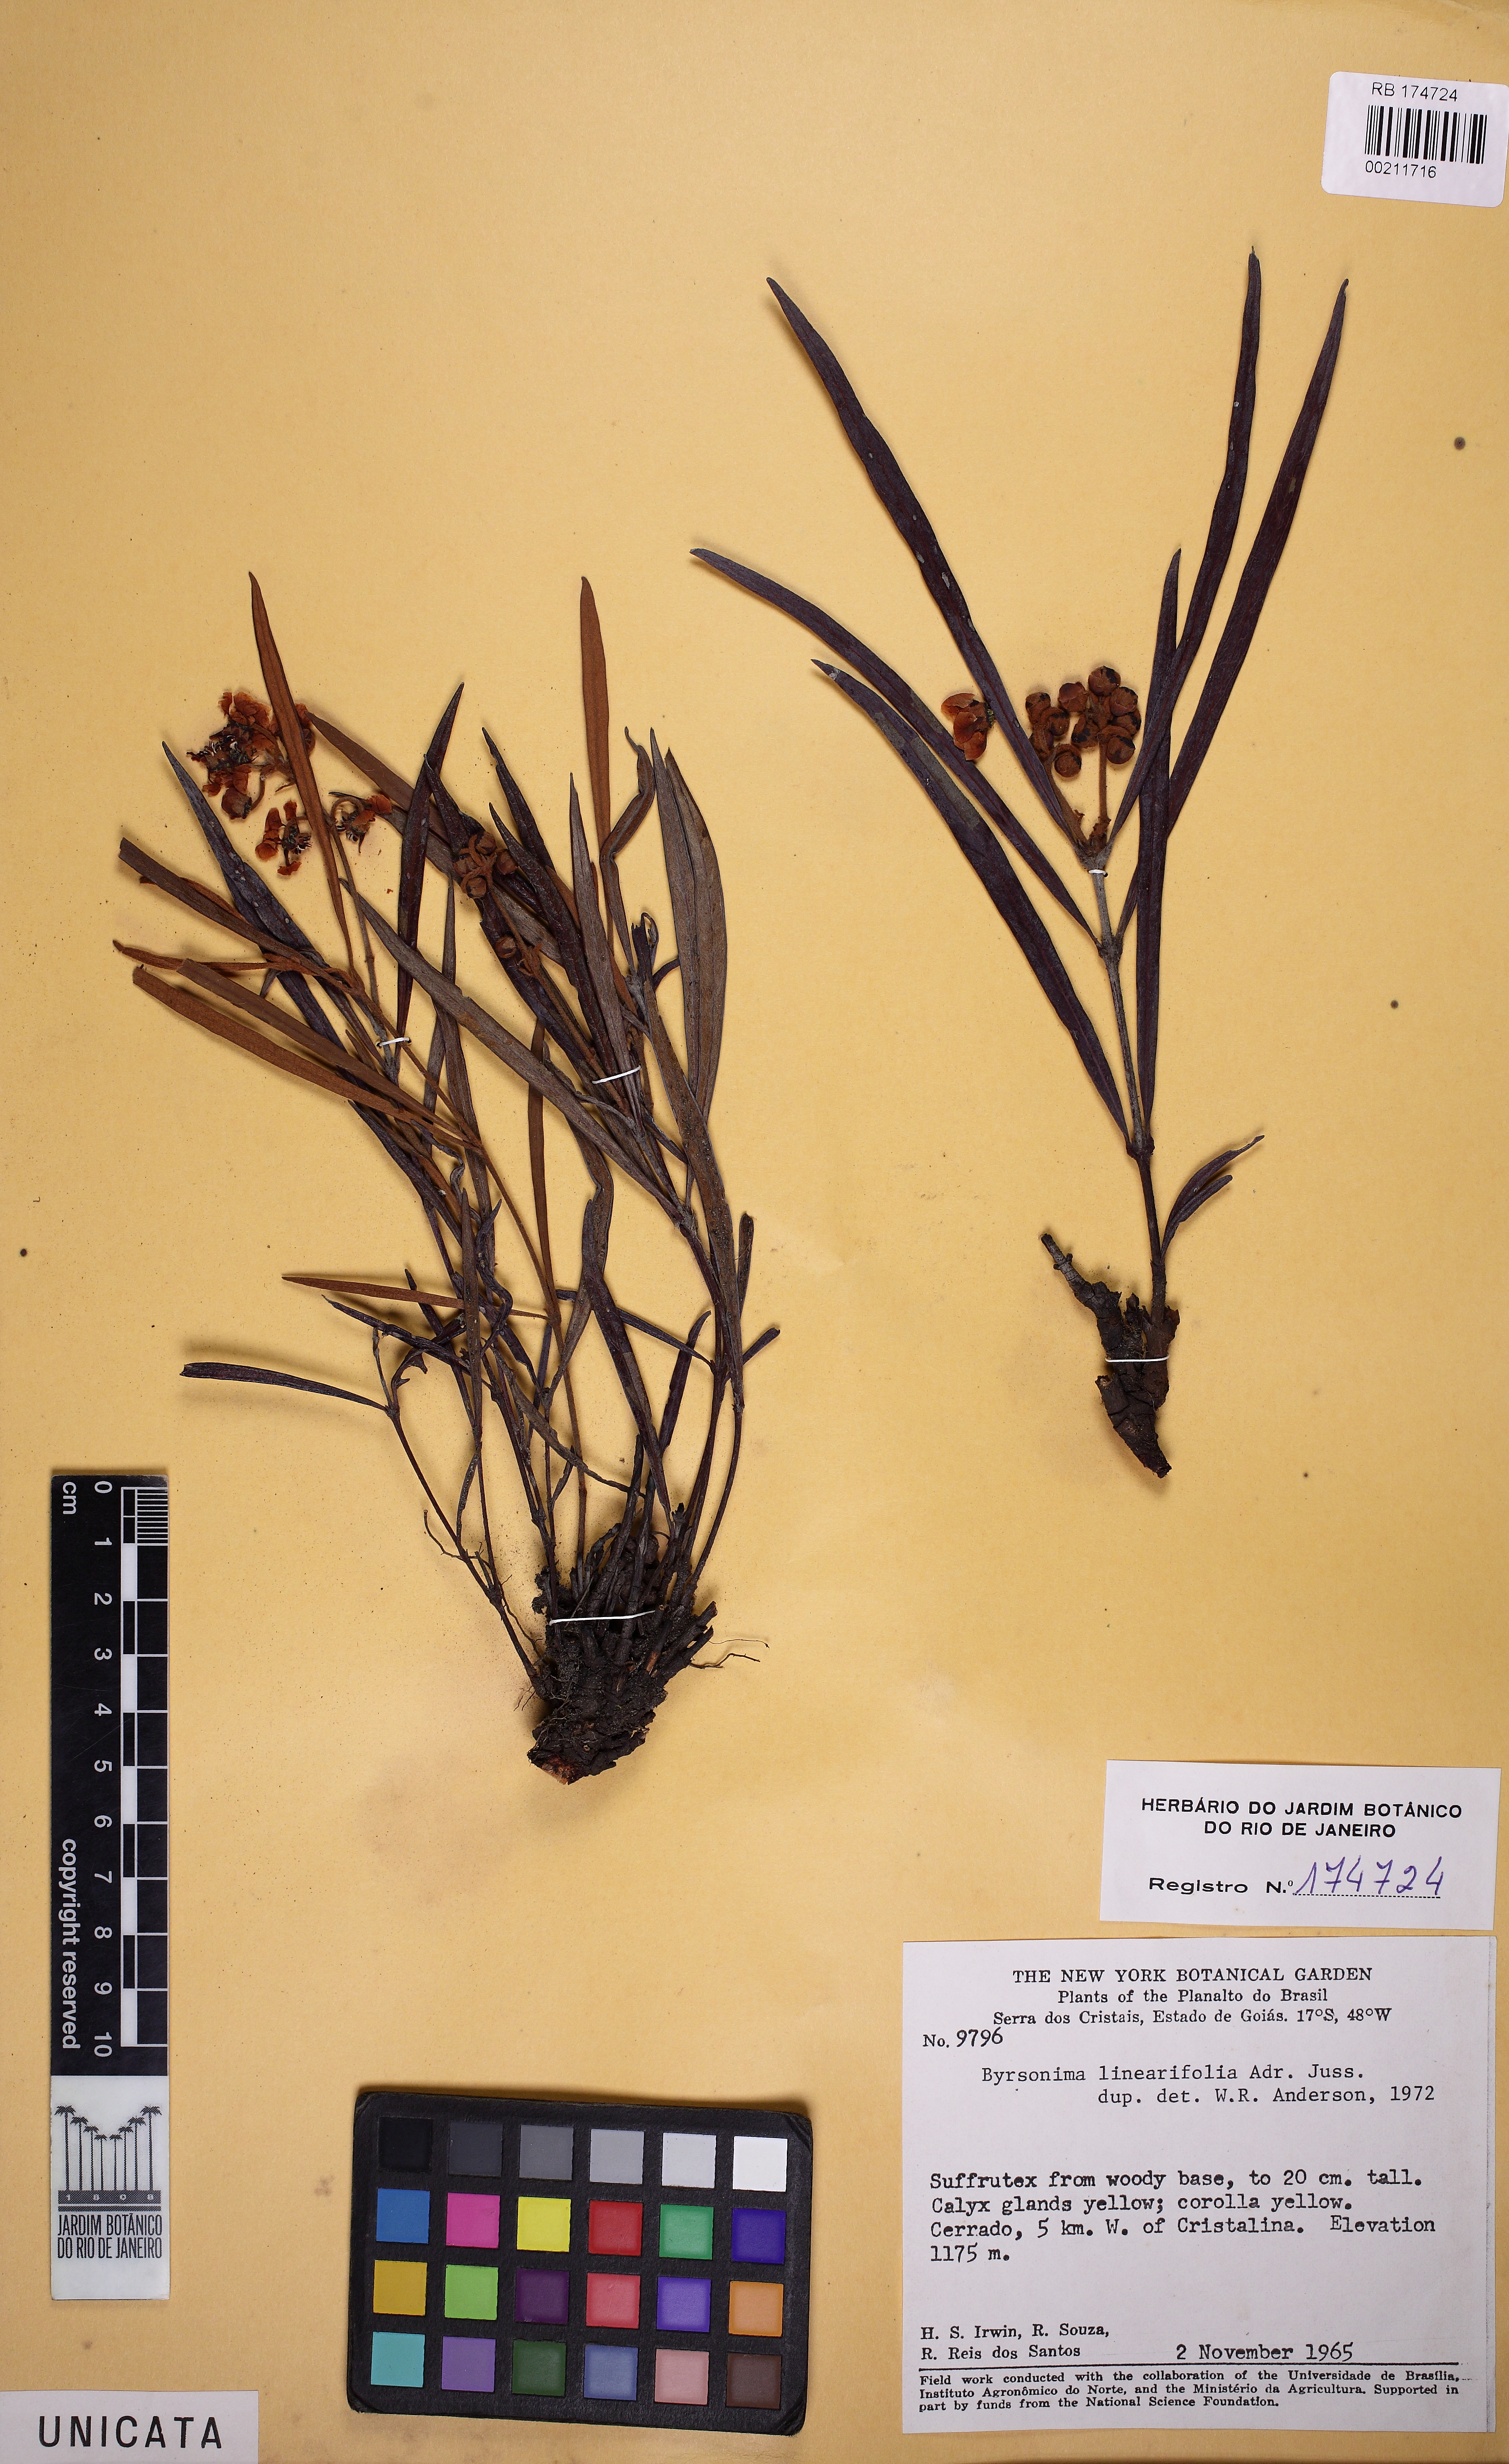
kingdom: Plantae
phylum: Tracheophyta
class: Magnoliopsida
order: Malpighiales
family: Malpighiaceae
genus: Byrsonima
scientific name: Byrsonima linearifolia
